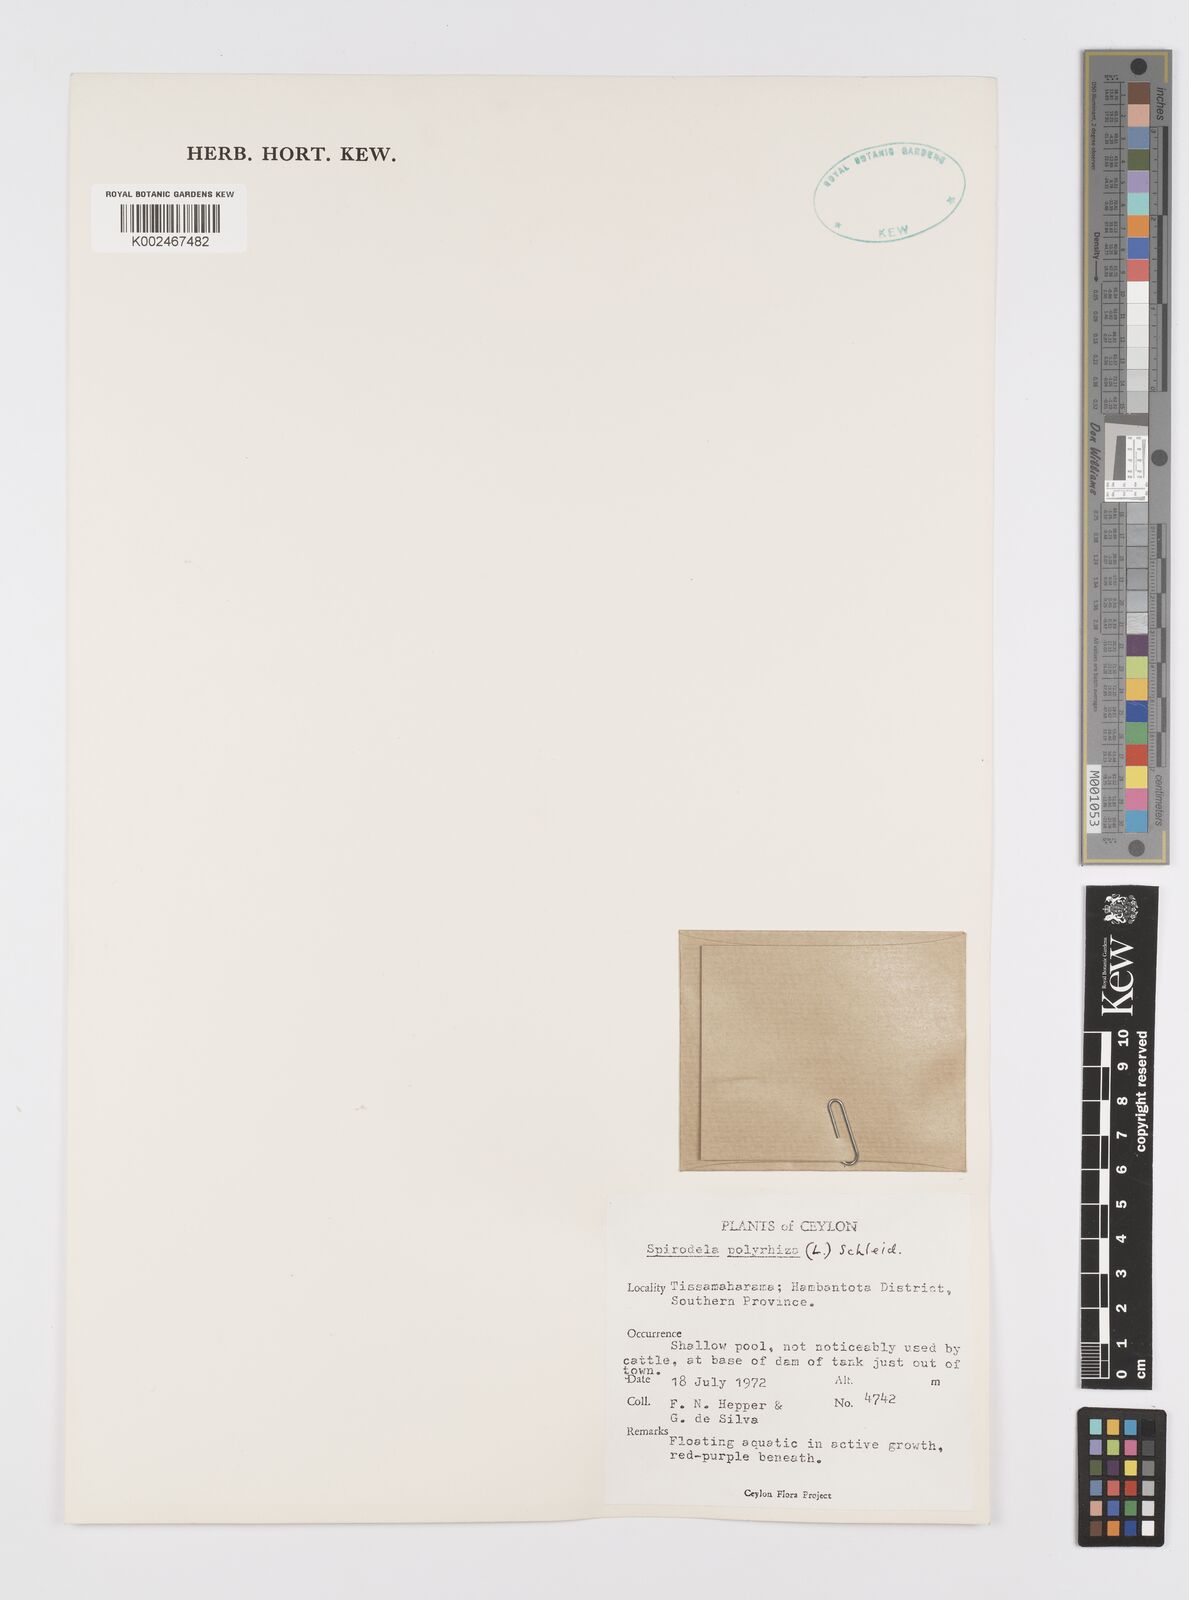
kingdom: Plantae
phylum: Tracheophyta
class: Liliopsida
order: Alismatales
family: Araceae
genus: Spirodela
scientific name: Spirodela polyrhiza
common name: Great duckweed
